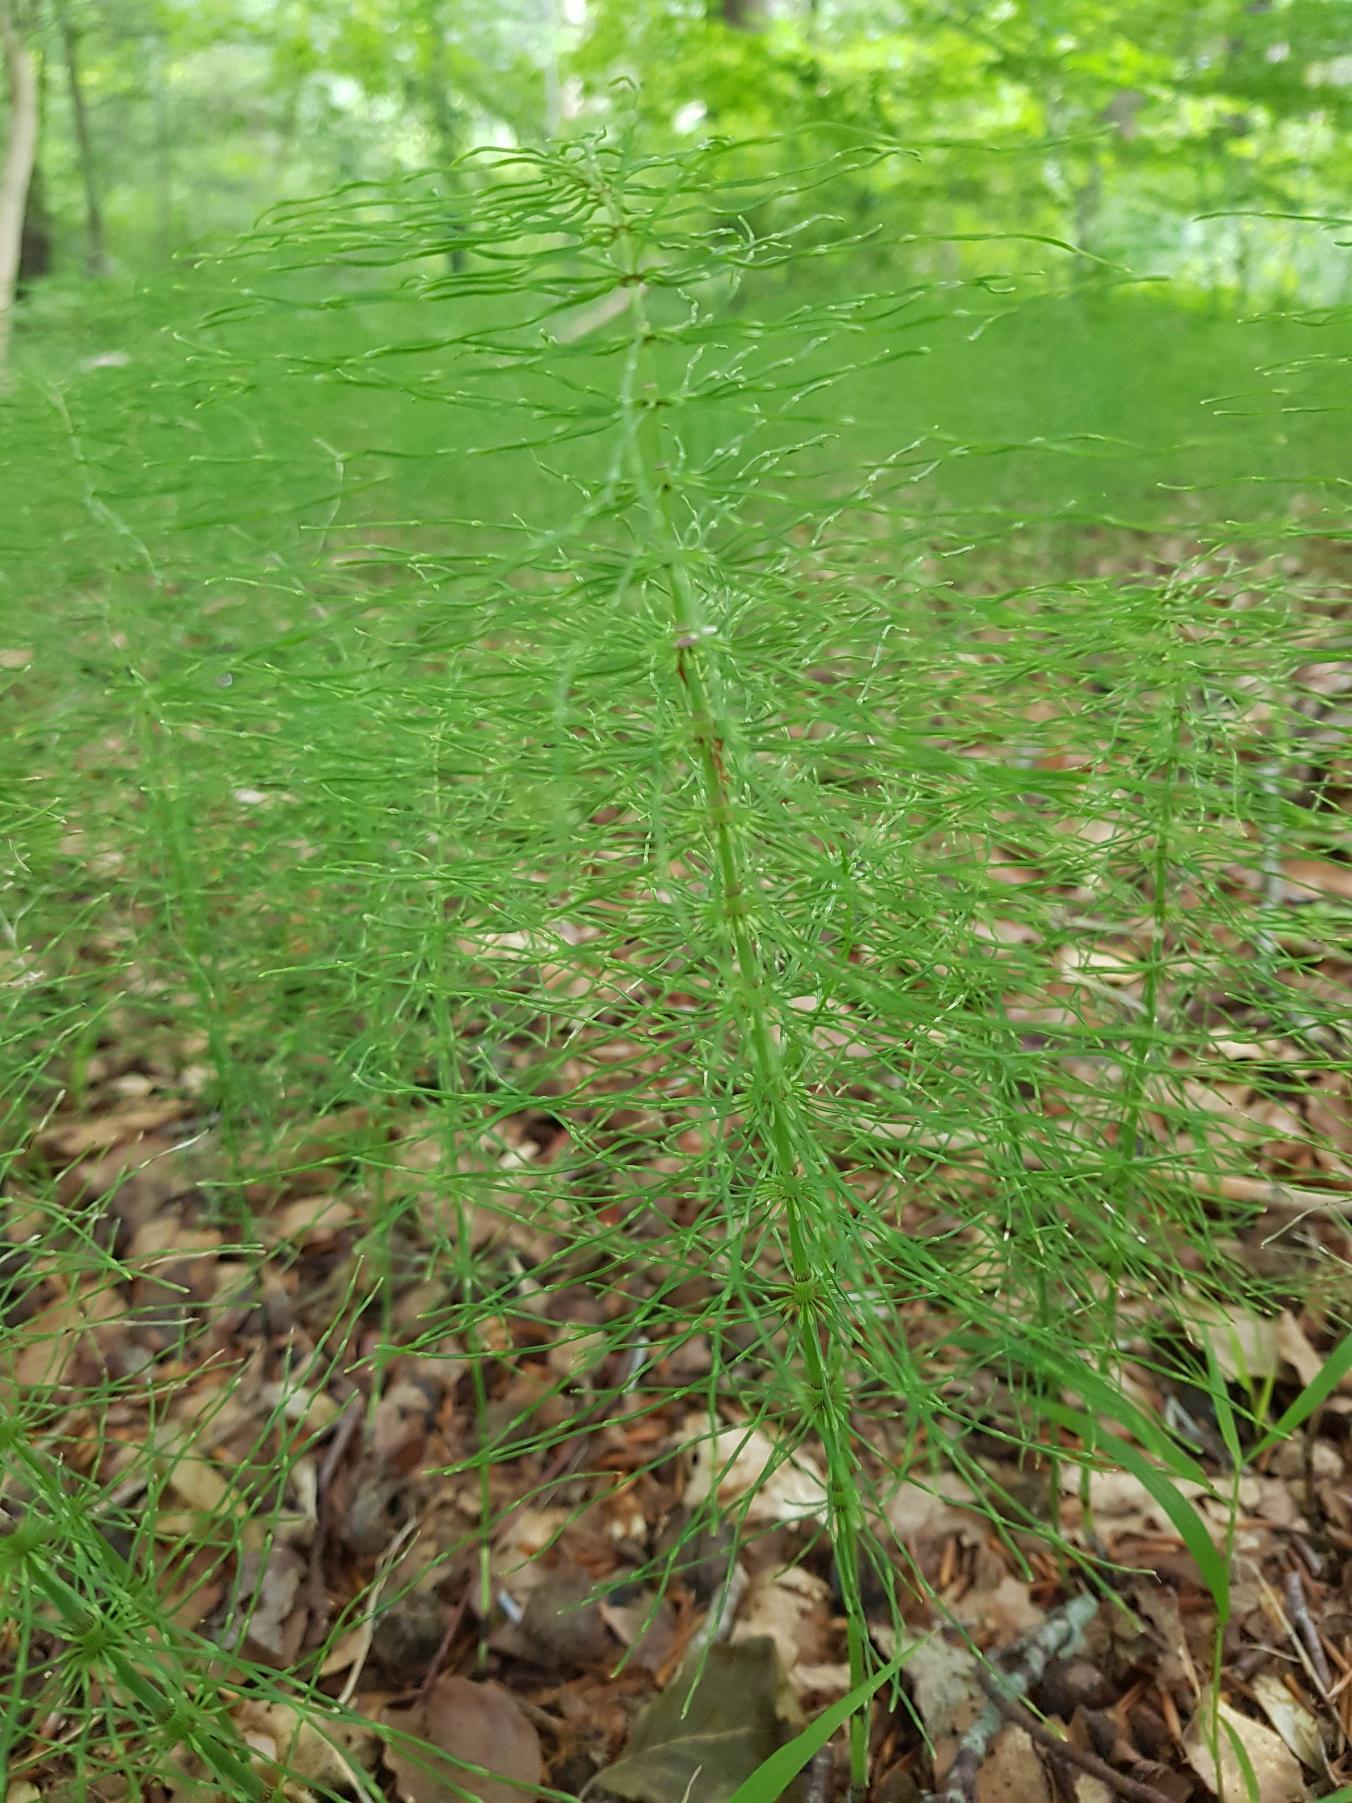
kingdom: Plantae
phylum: Tracheophyta
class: Polypodiopsida
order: Equisetales
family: Equisetaceae
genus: Equisetum
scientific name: Equisetum pratense
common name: Lund-padderok
